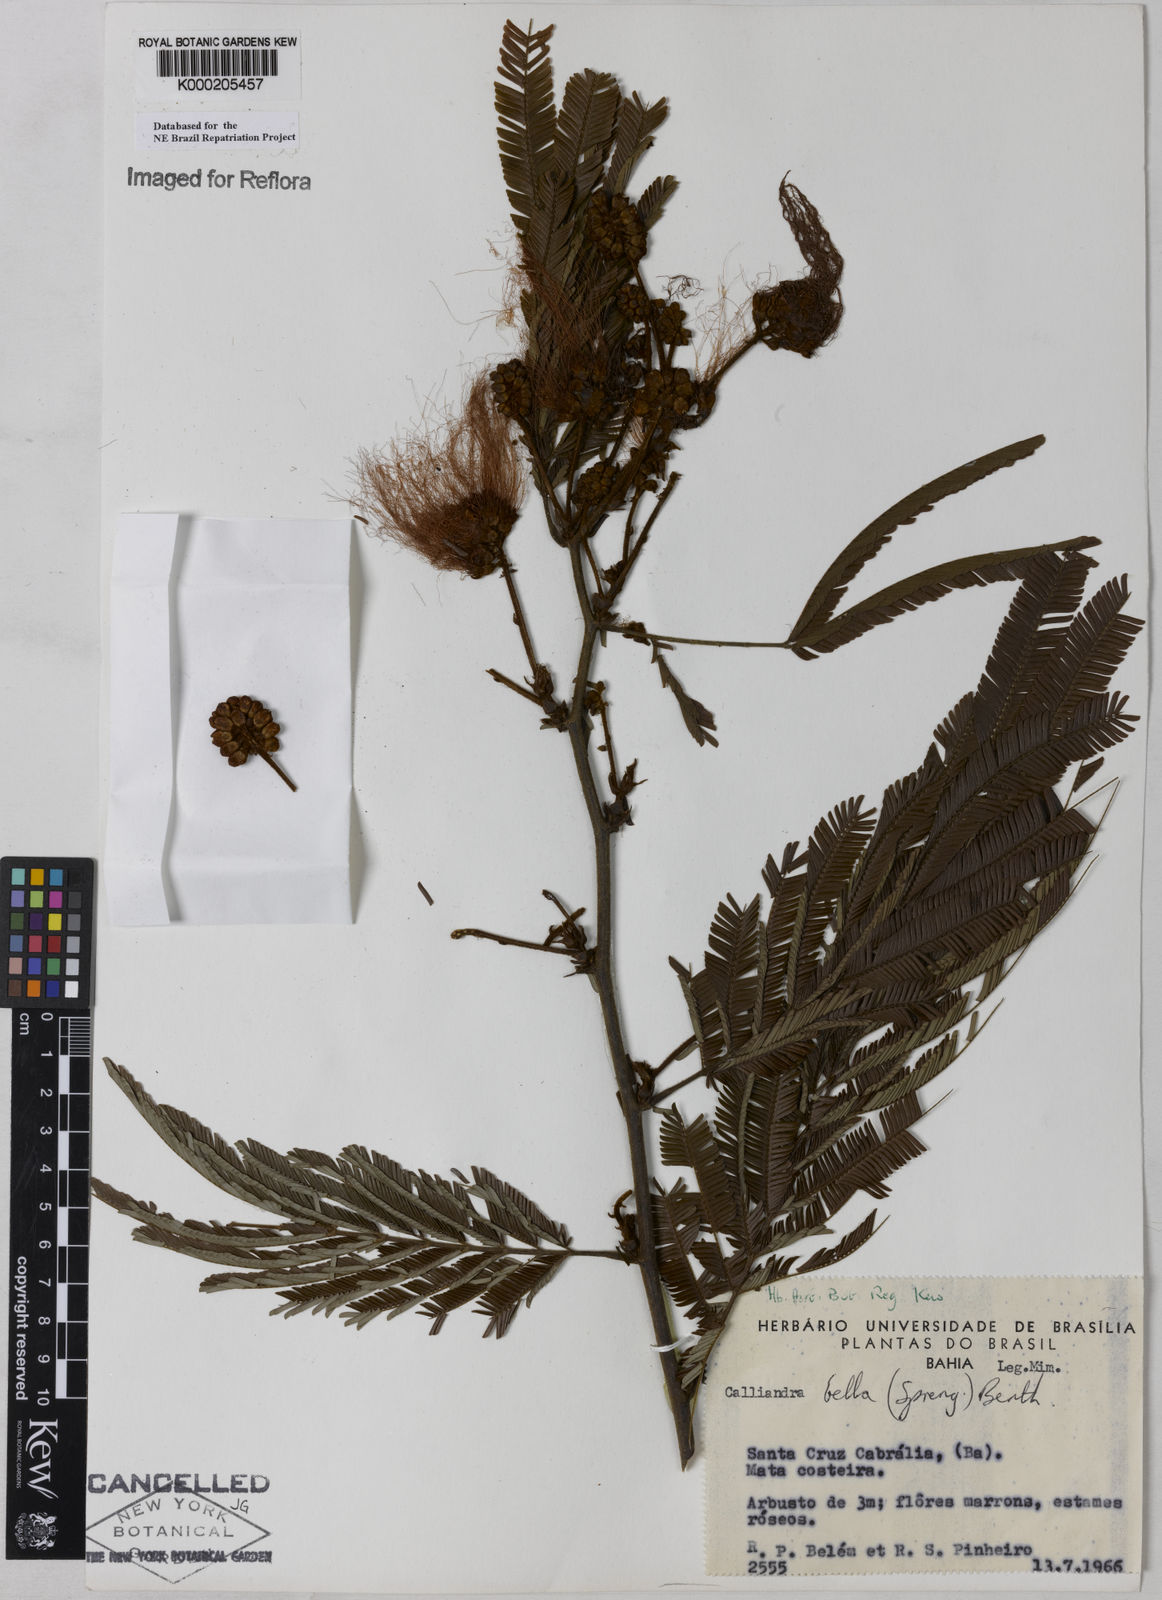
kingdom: Plantae
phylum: Tracheophyta
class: Magnoliopsida
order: Fabales
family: Fabaceae
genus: Calliandra
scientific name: Calliandra bella
